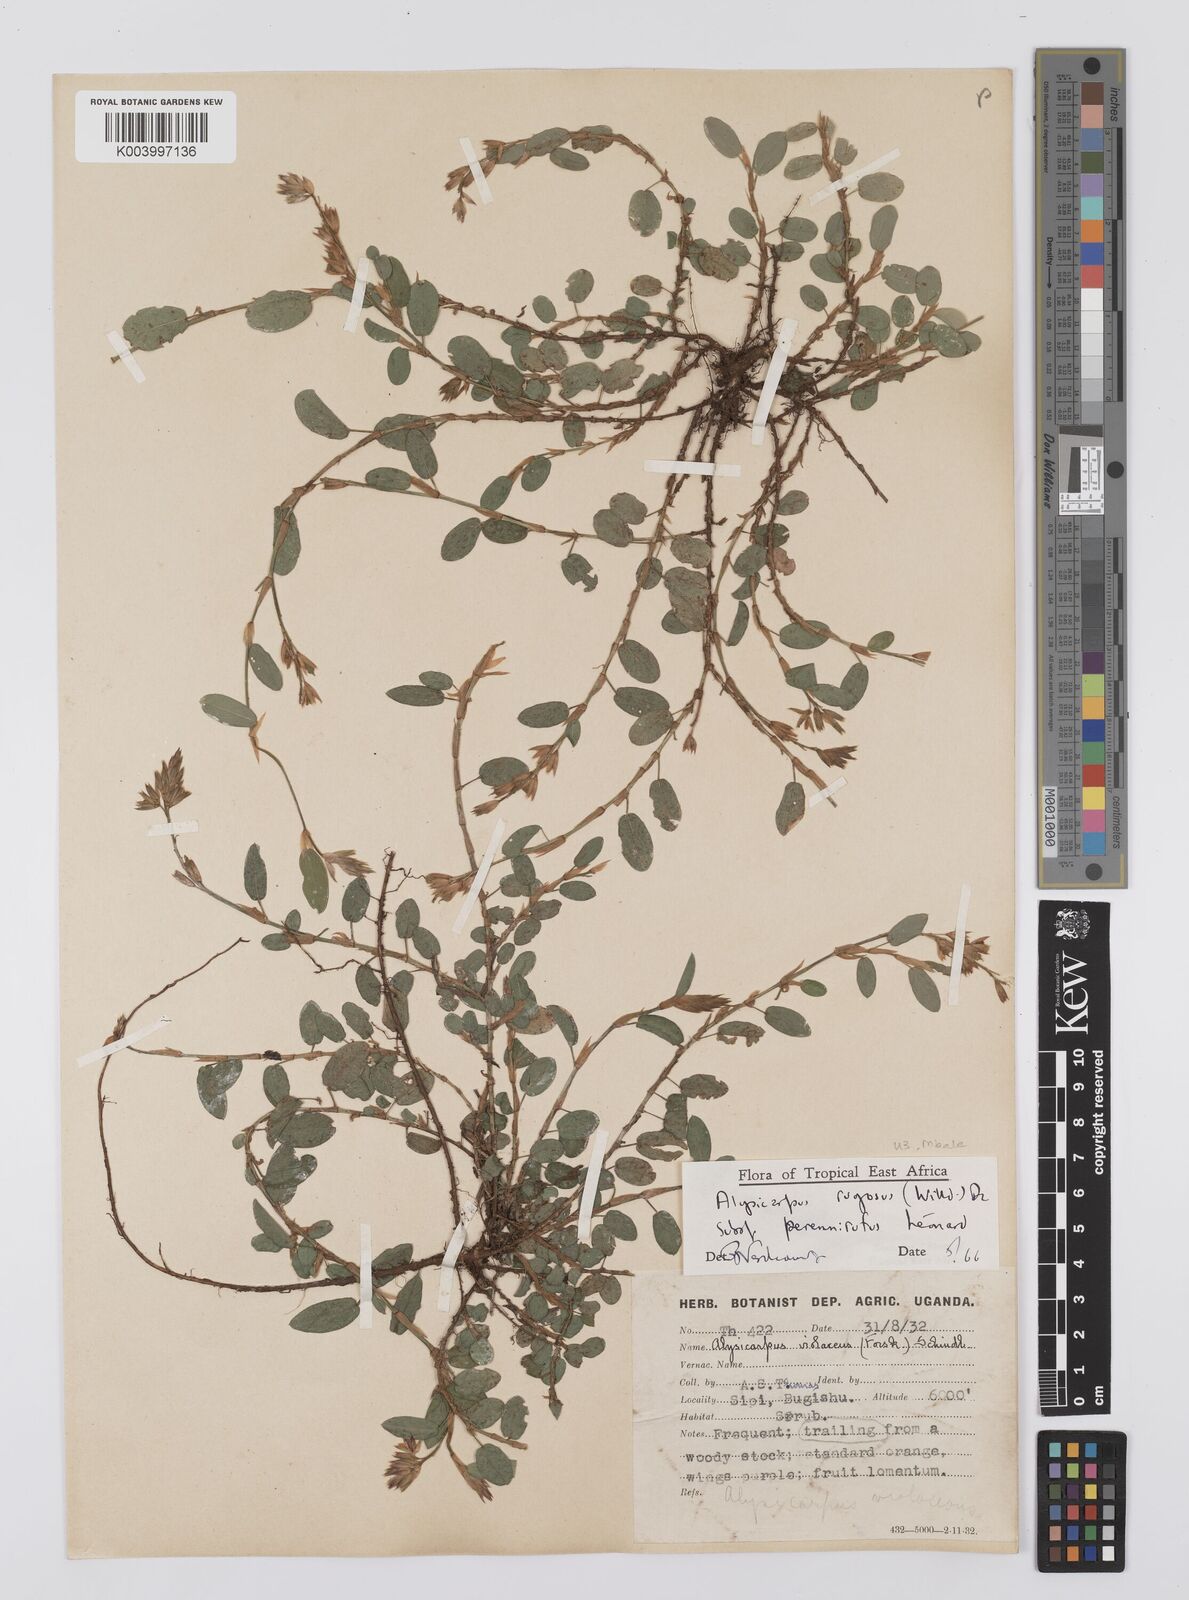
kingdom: Plantae
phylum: Tracheophyta
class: Magnoliopsida
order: Fabales
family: Fabaceae
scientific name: Fabaceae
